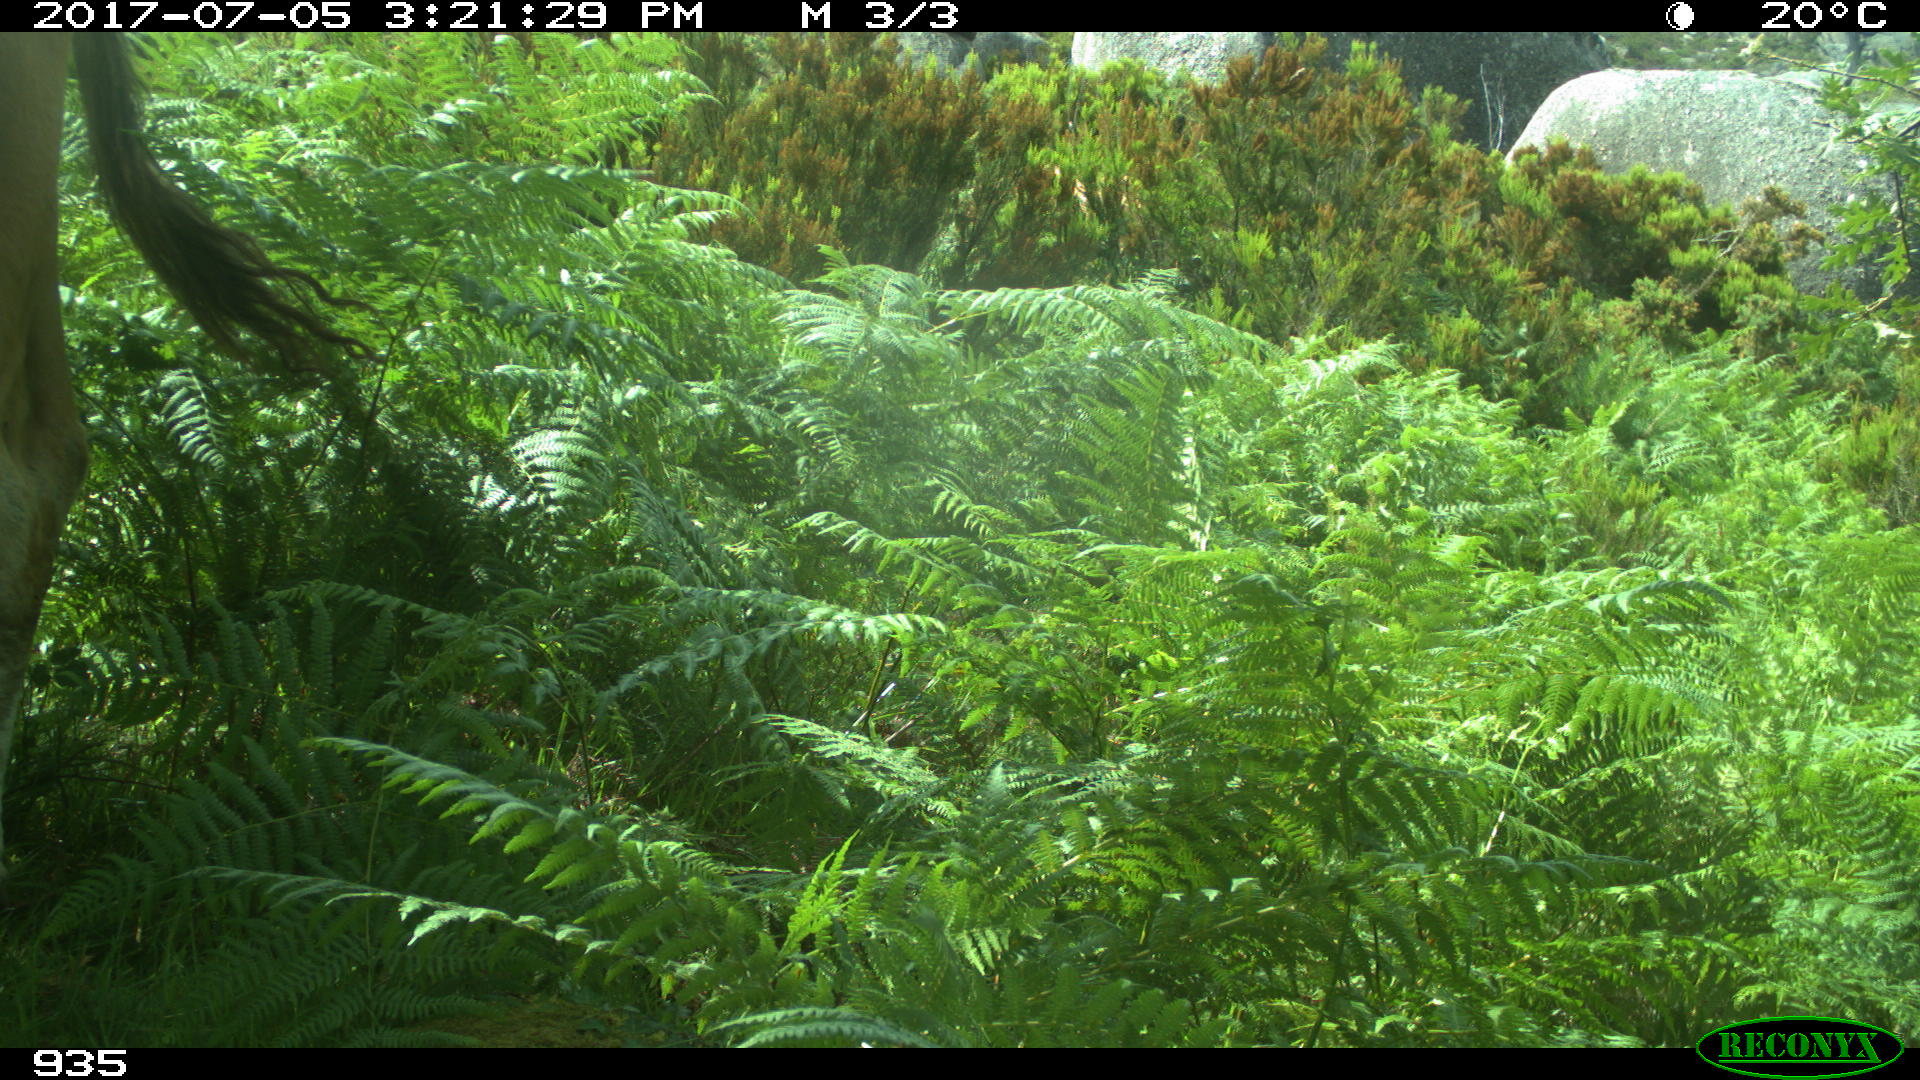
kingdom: Animalia
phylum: Chordata
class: Mammalia
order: Artiodactyla
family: Bovidae
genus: Bos
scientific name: Bos taurus
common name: Domesticated cattle
